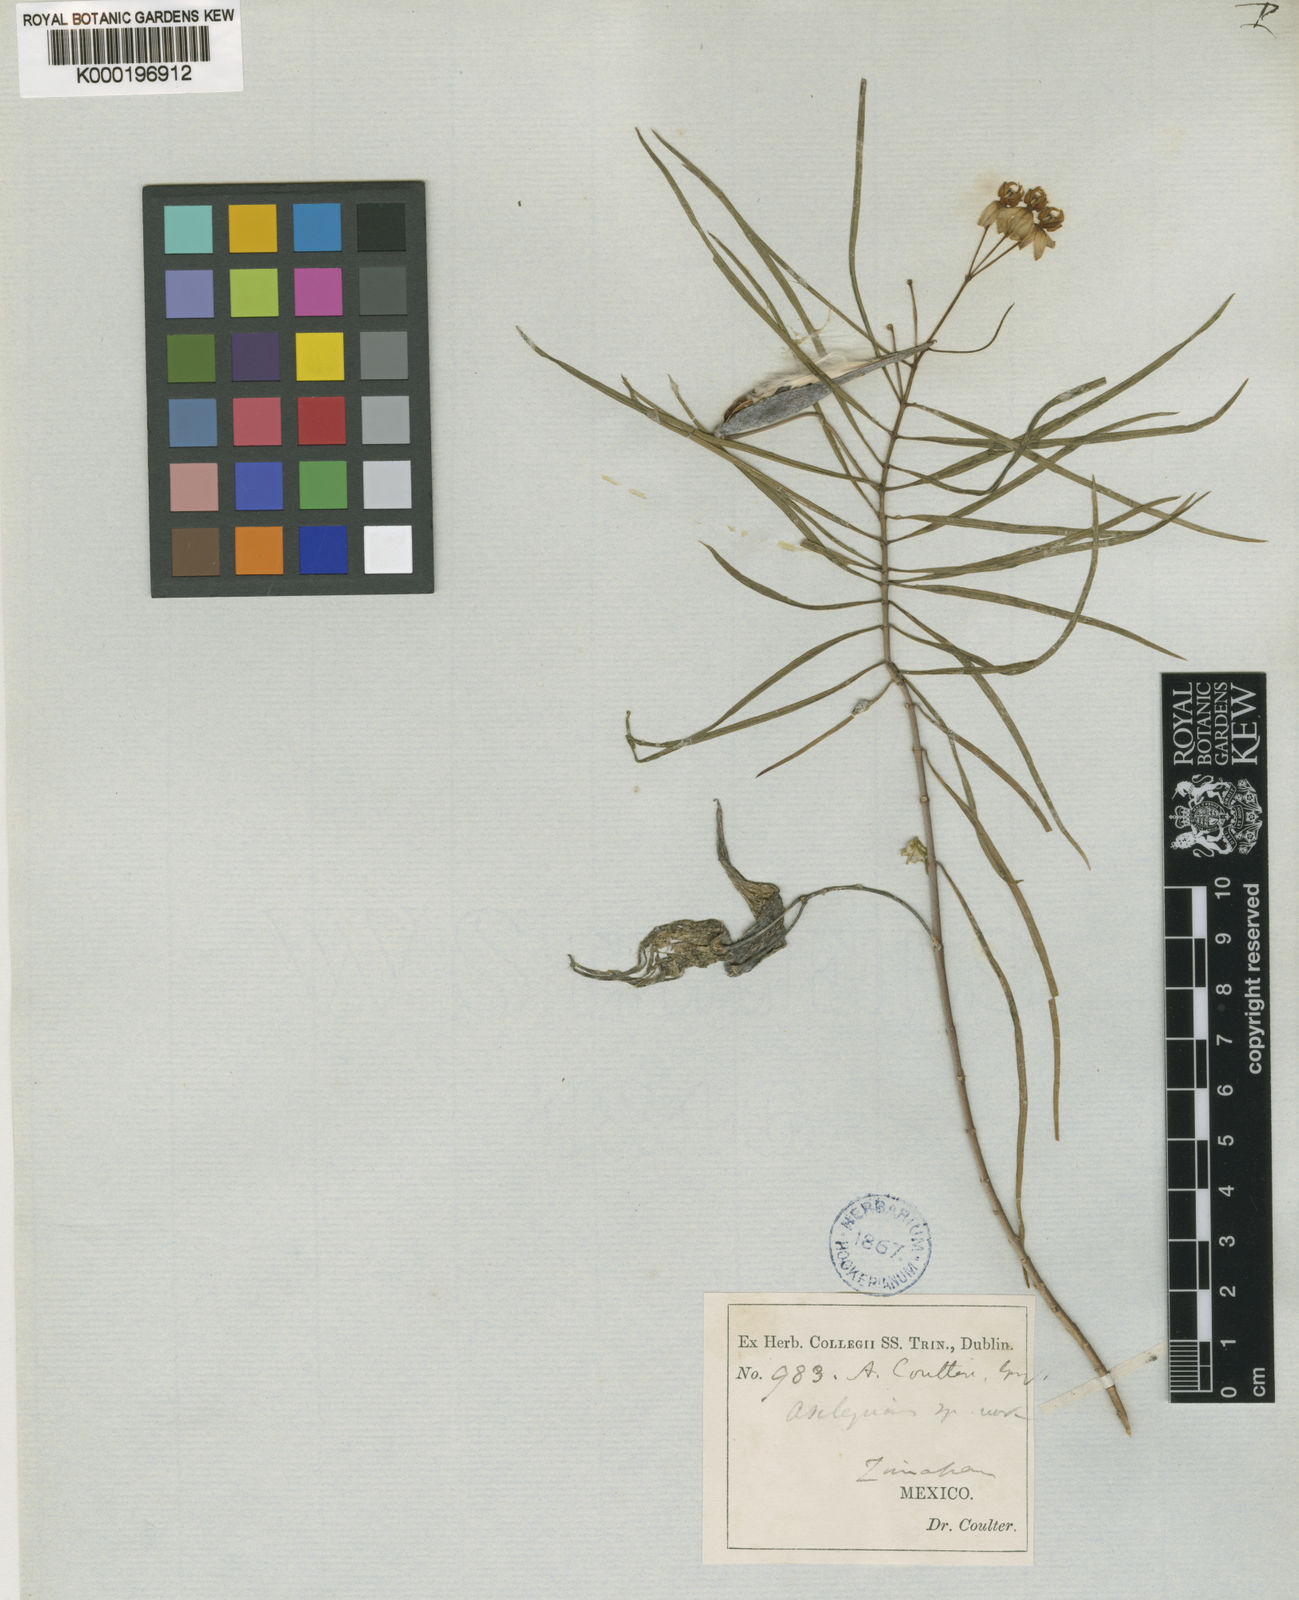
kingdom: Plantae
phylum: Tracheophyta
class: Magnoliopsida
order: Gentianales
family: Apocynaceae
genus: Asclepias
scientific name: Asclepias coulteri
